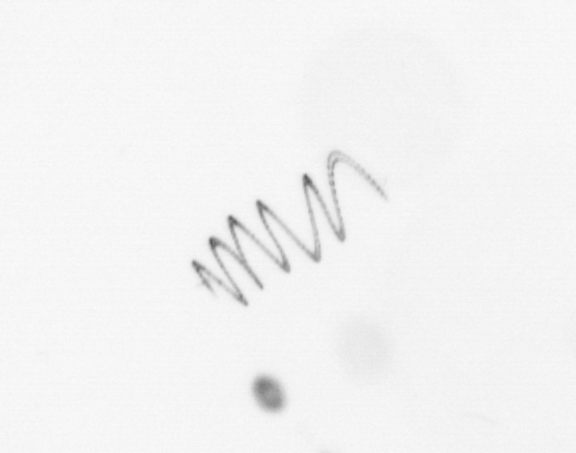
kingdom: Chromista
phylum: Ochrophyta
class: Bacillariophyceae
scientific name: Bacillariophyceae
